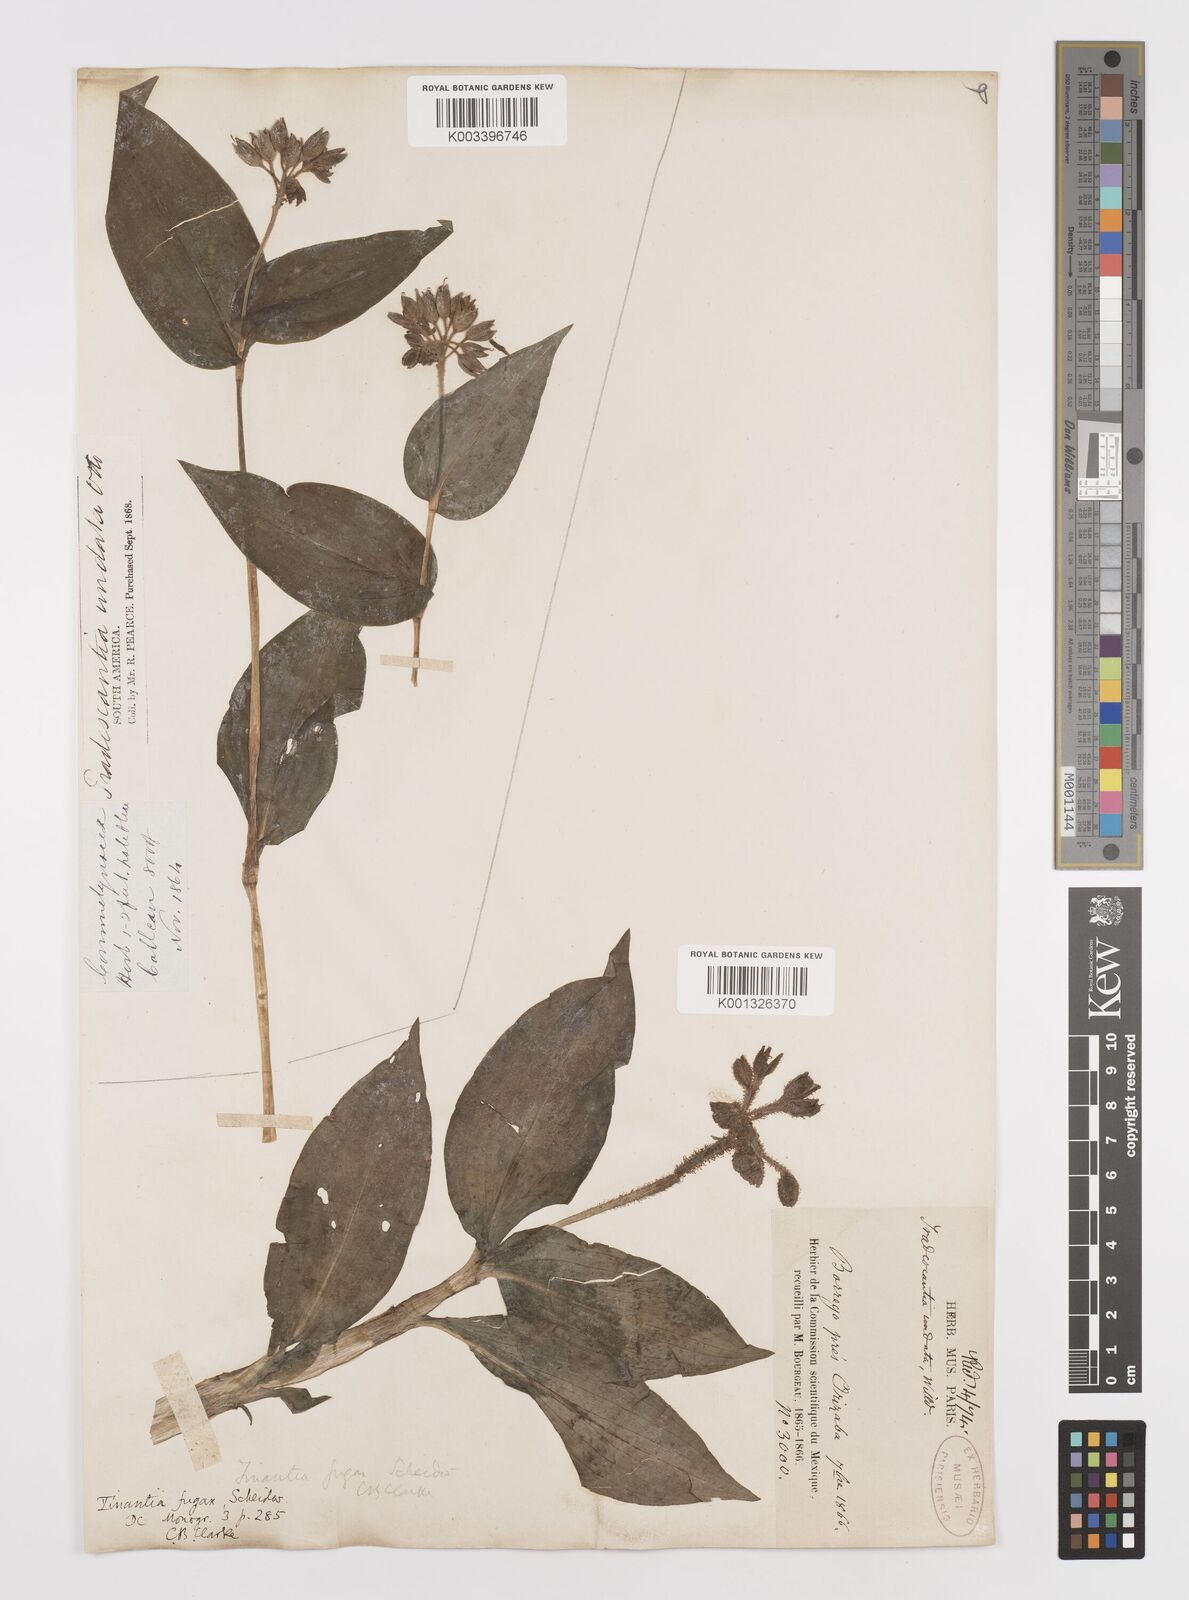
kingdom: Plantae
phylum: Tracheophyta
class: Liliopsida
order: Commelinales
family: Commelinaceae
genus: Tinantia
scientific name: Tinantia erecta
